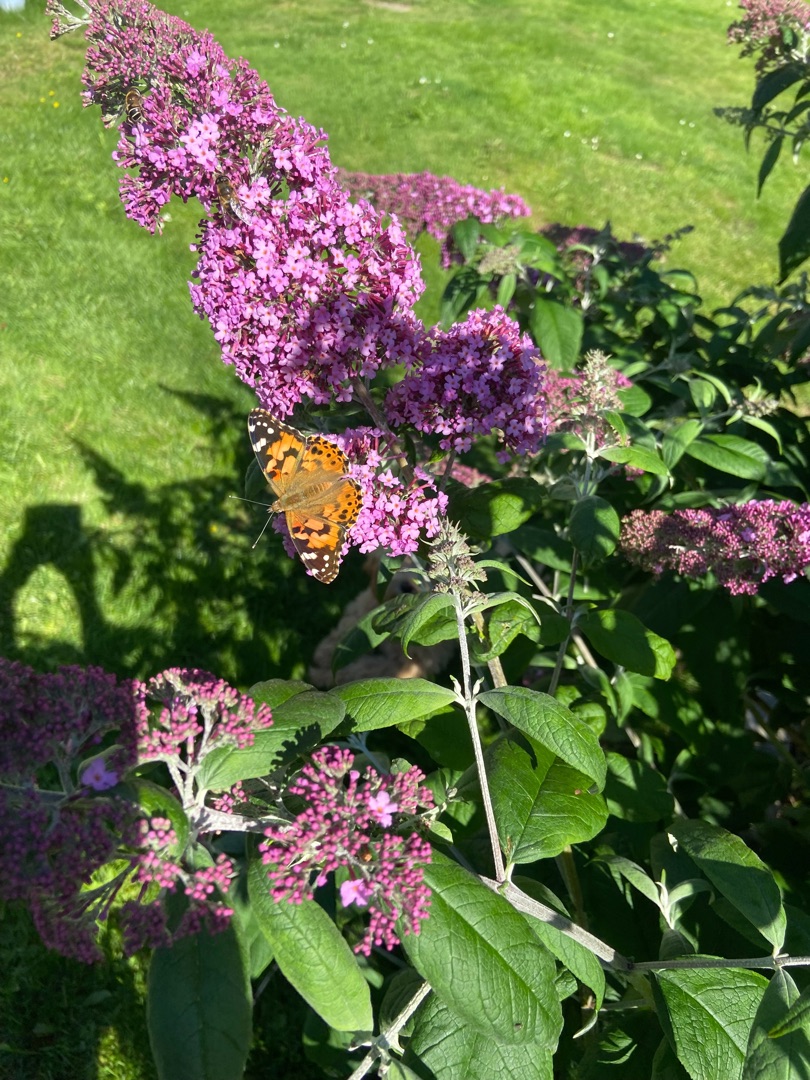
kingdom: Animalia
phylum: Arthropoda
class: Insecta
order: Lepidoptera
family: Nymphalidae
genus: Vanessa
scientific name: Vanessa cardui
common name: Tidselsommerfugl
